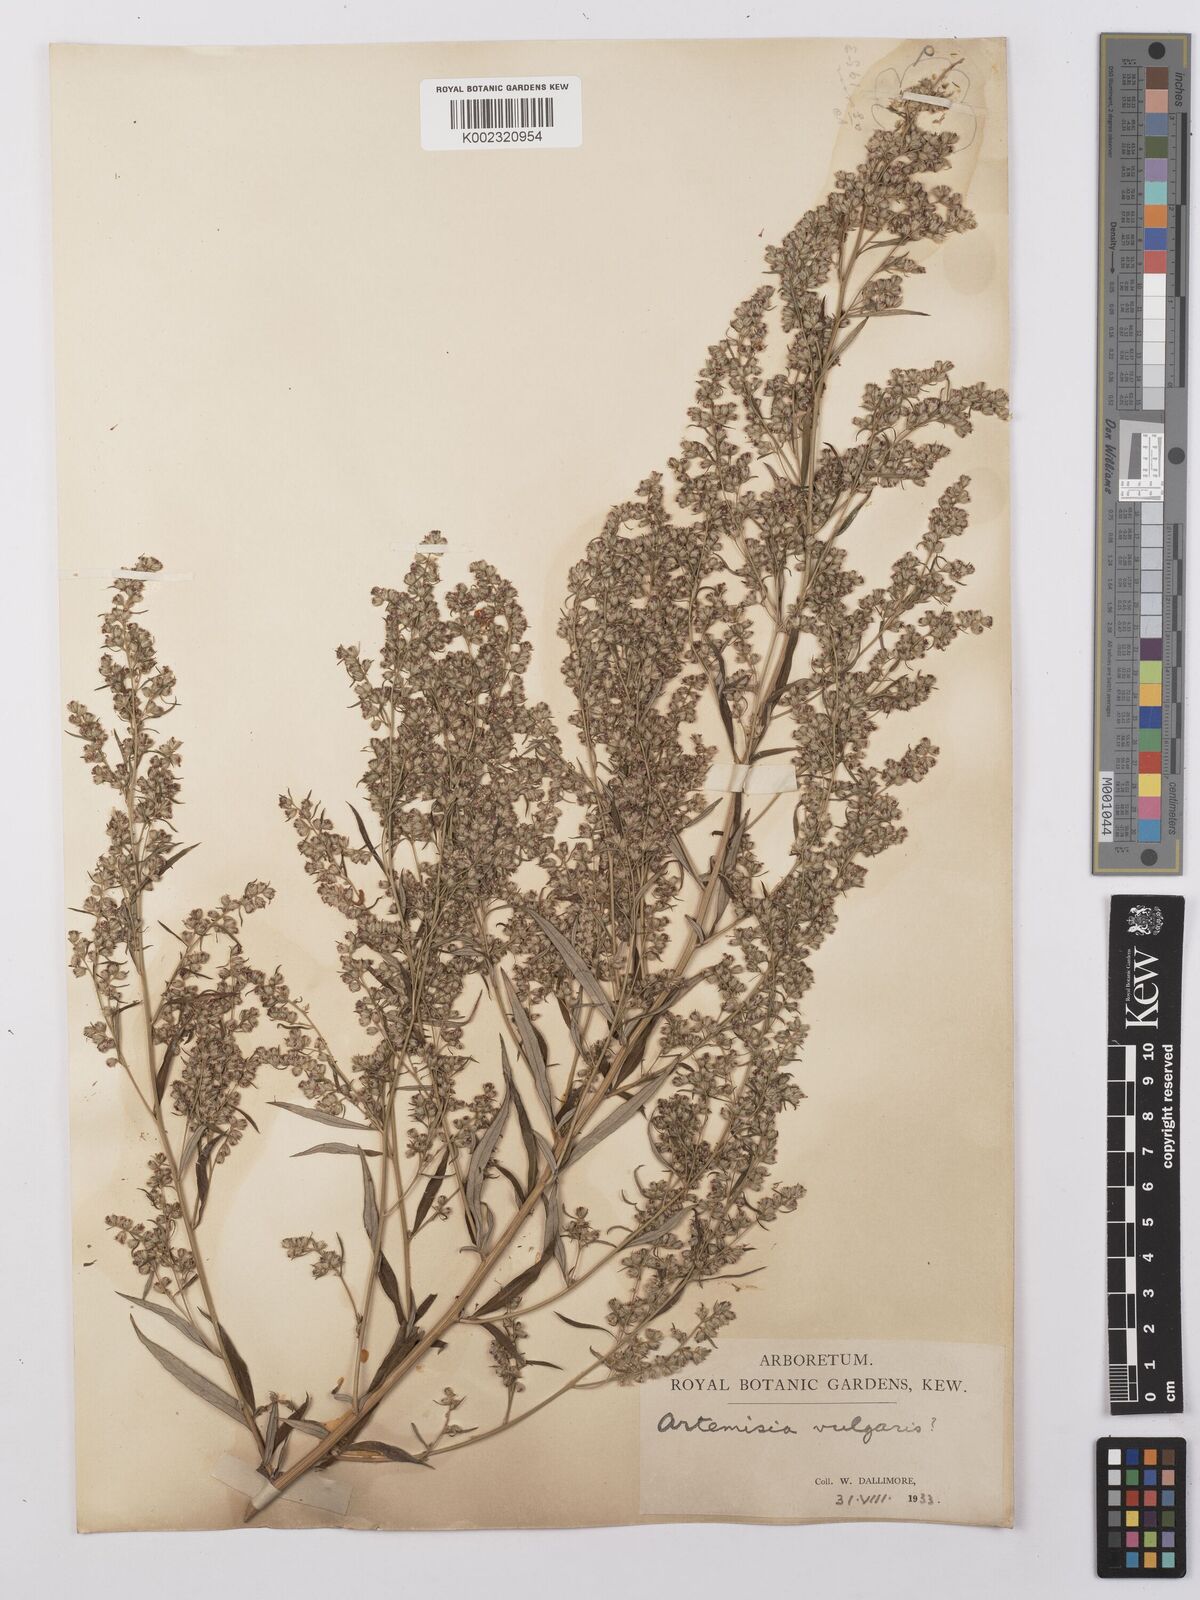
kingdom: Plantae
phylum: Tracheophyta
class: Magnoliopsida
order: Asterales
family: Asteraceae
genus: Artemisia
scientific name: Artemisia vulgaris
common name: Mugwort
